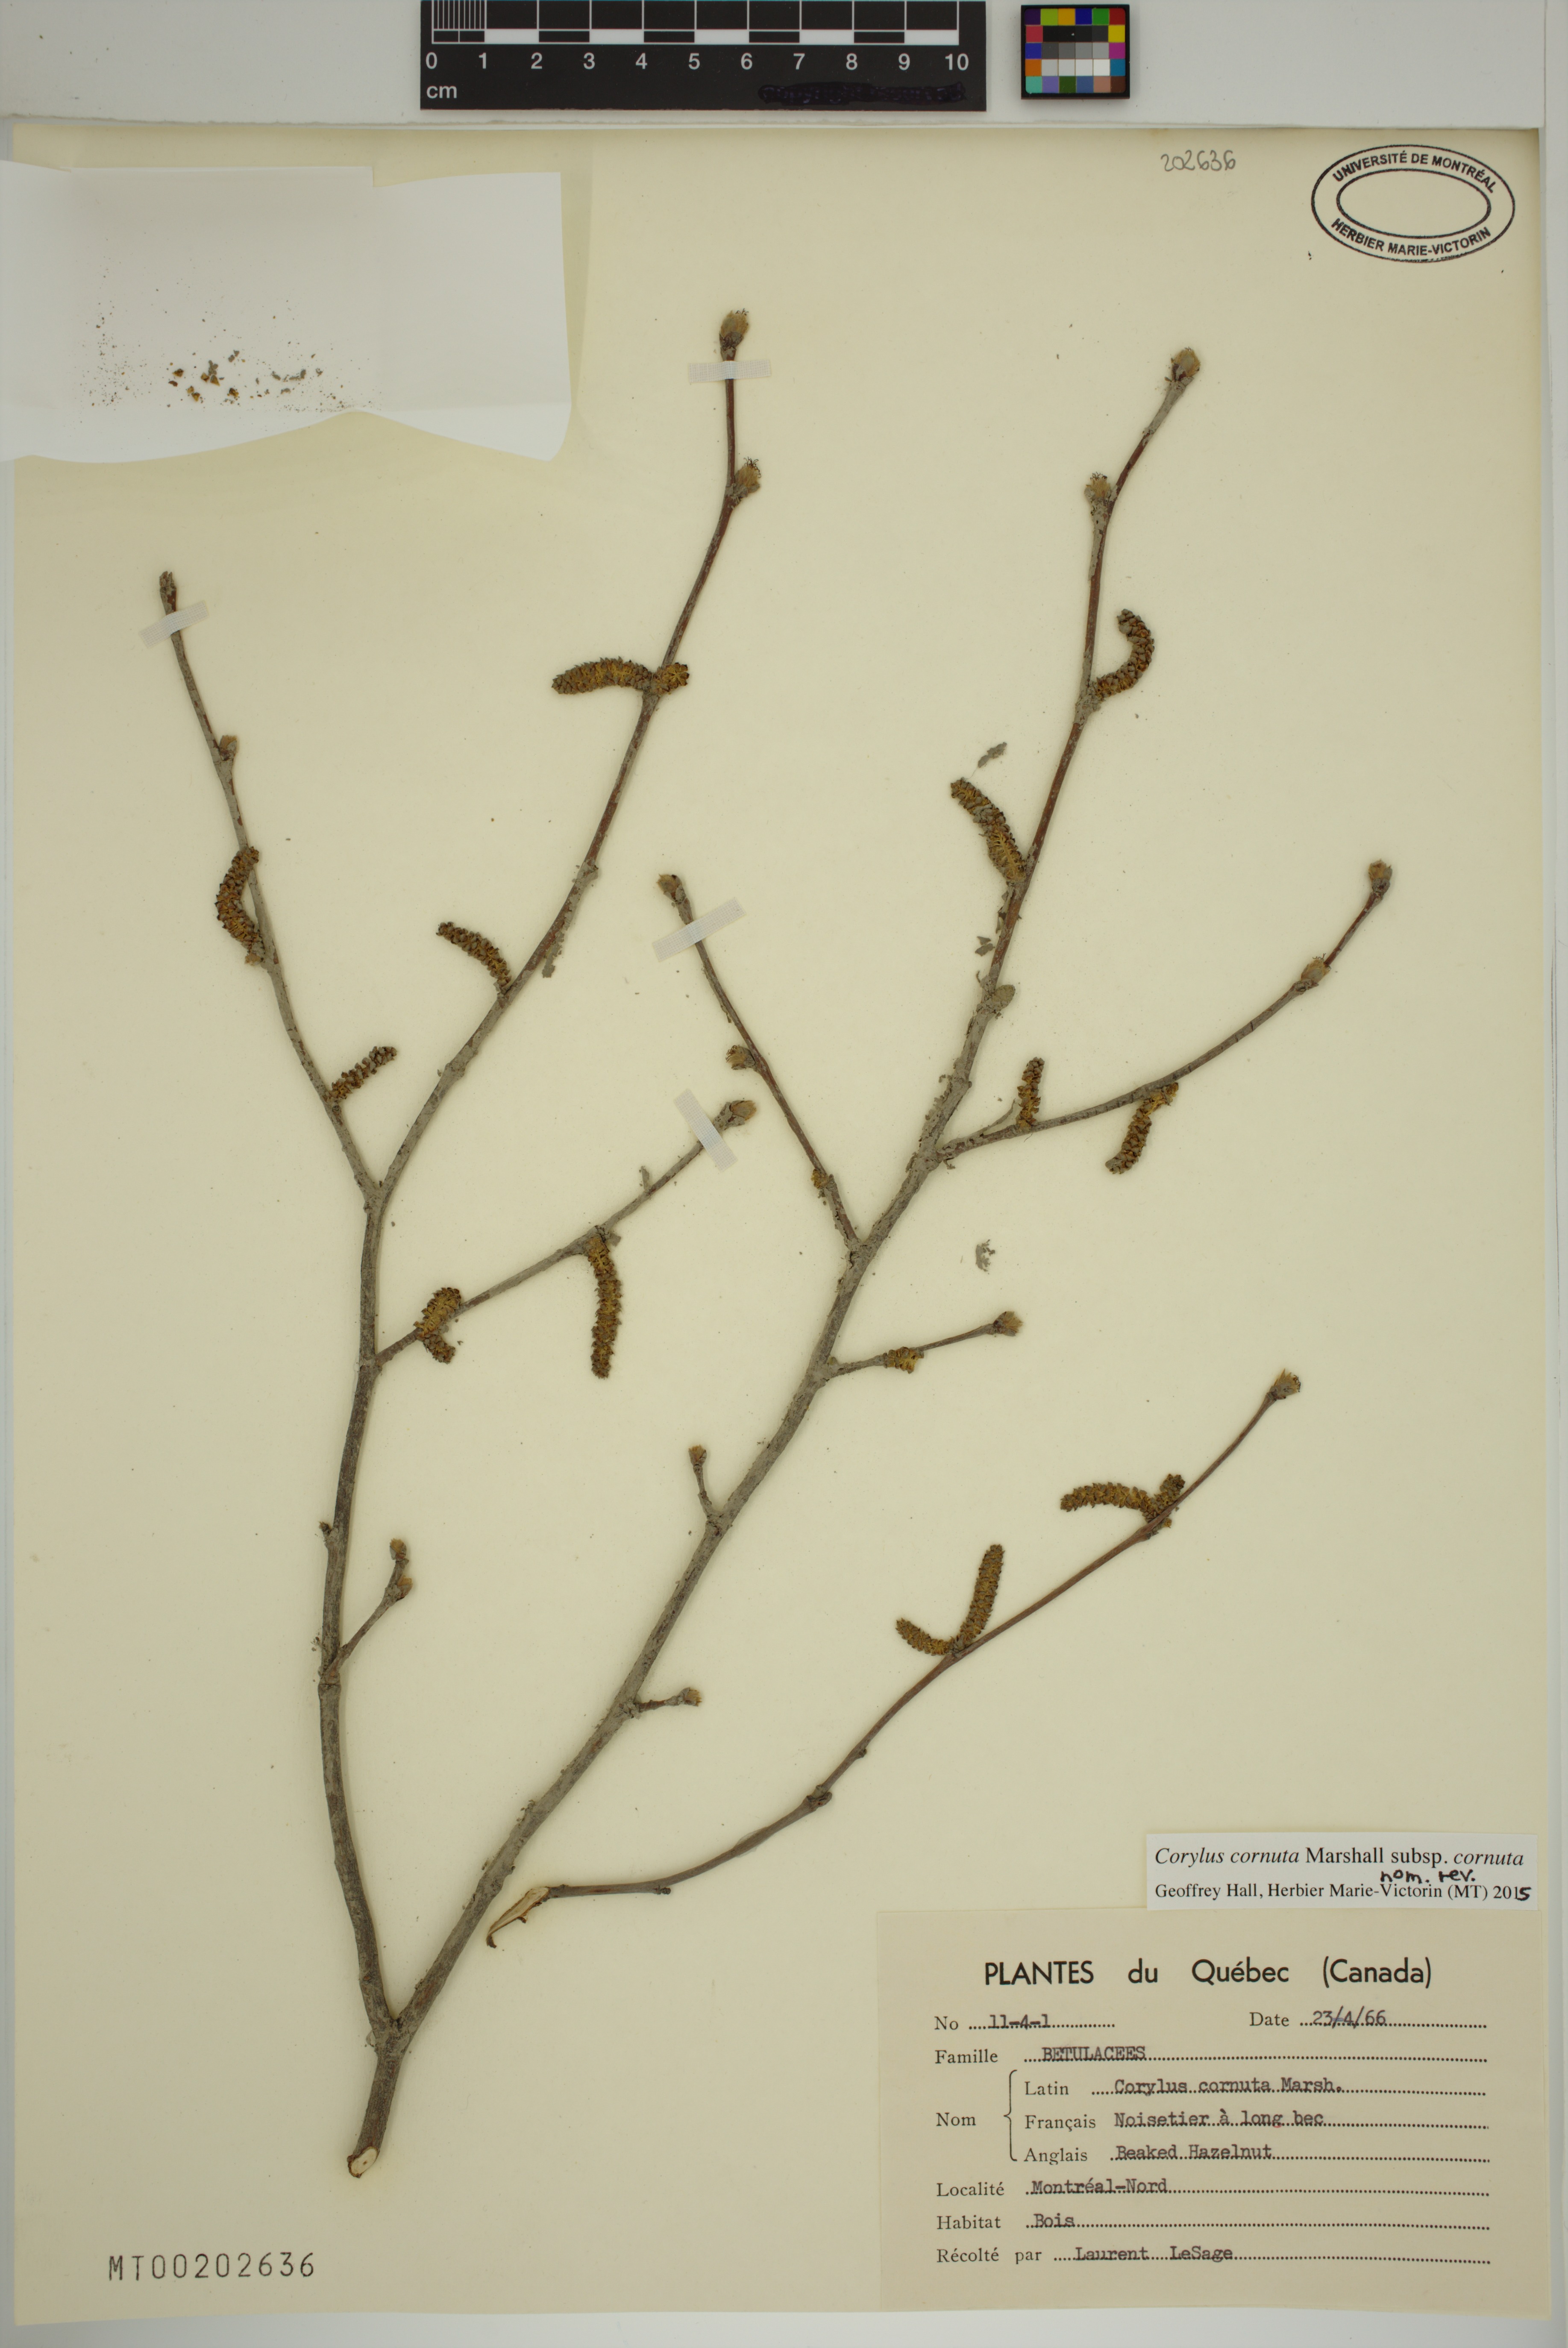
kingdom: Plantae
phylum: Tracheophyta
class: Magnoliopsida
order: Fagales
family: Betulaceae
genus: Corylus
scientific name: Corylus cornuta
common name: Beaked hazel
